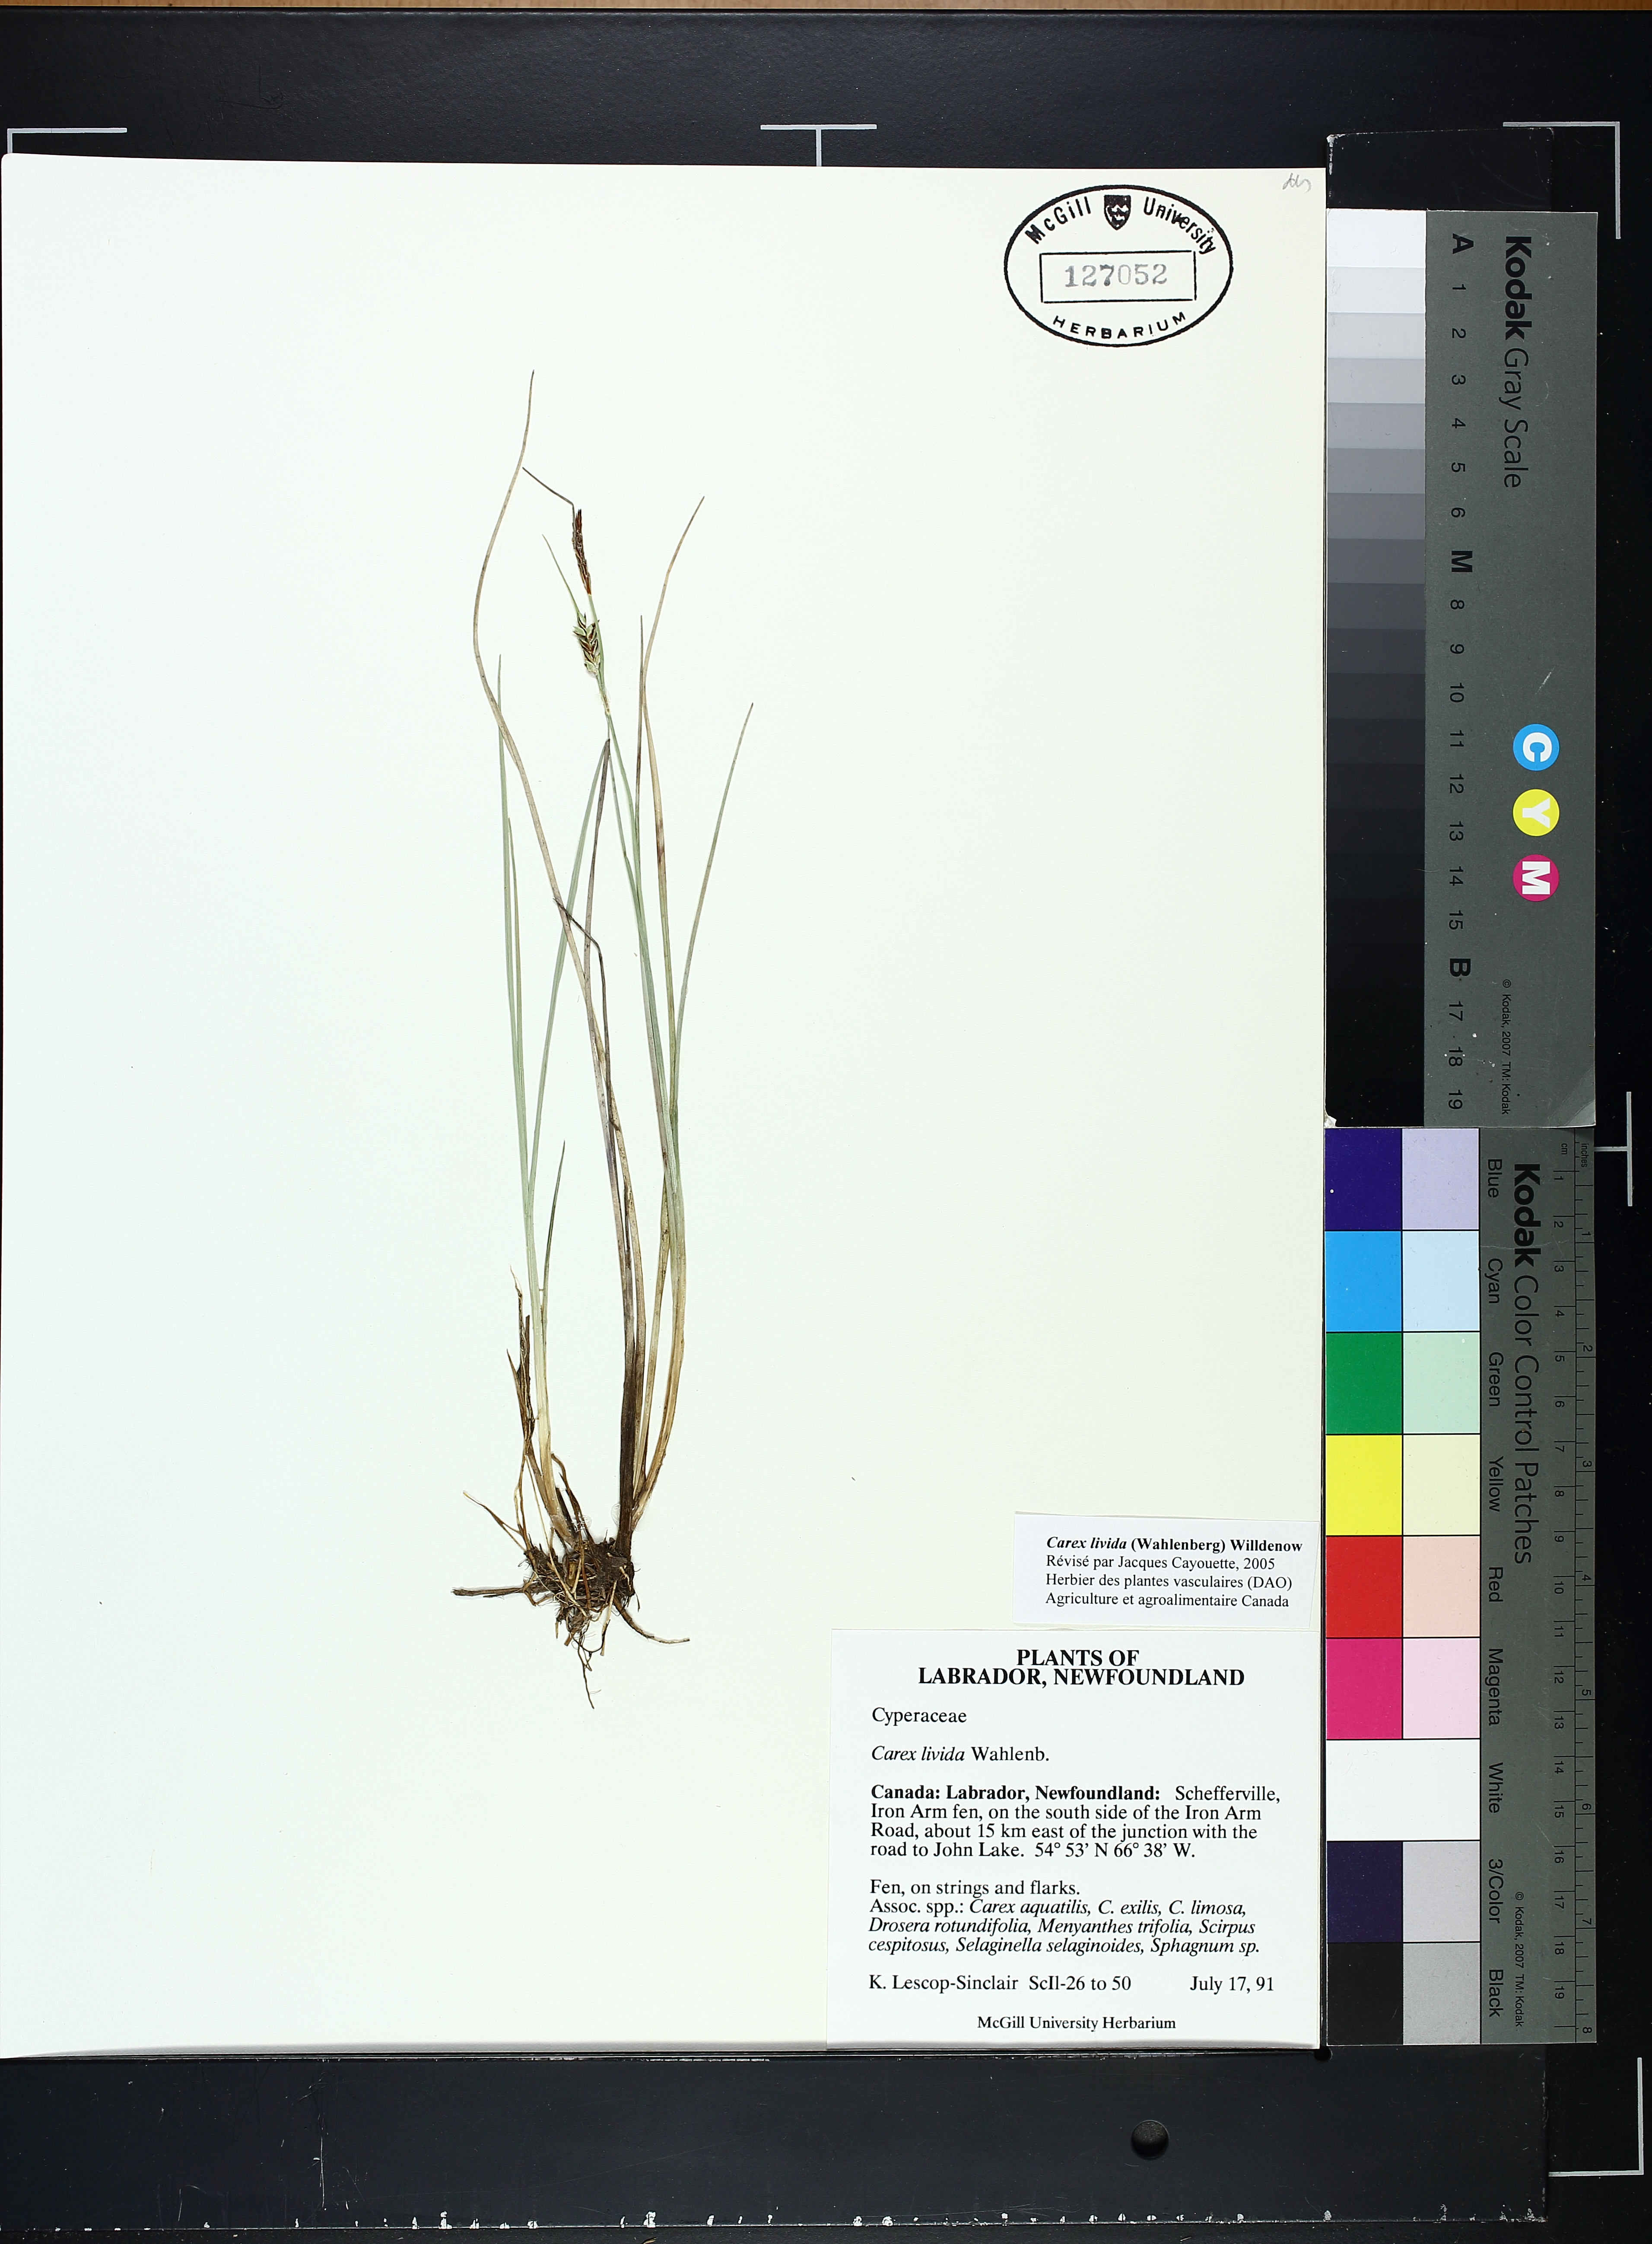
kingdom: Plantae
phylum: Tracheophyta
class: Liliopsida
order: Poales
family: Cyperaceae
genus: Carex
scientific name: Carex livida
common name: Livid sedge
